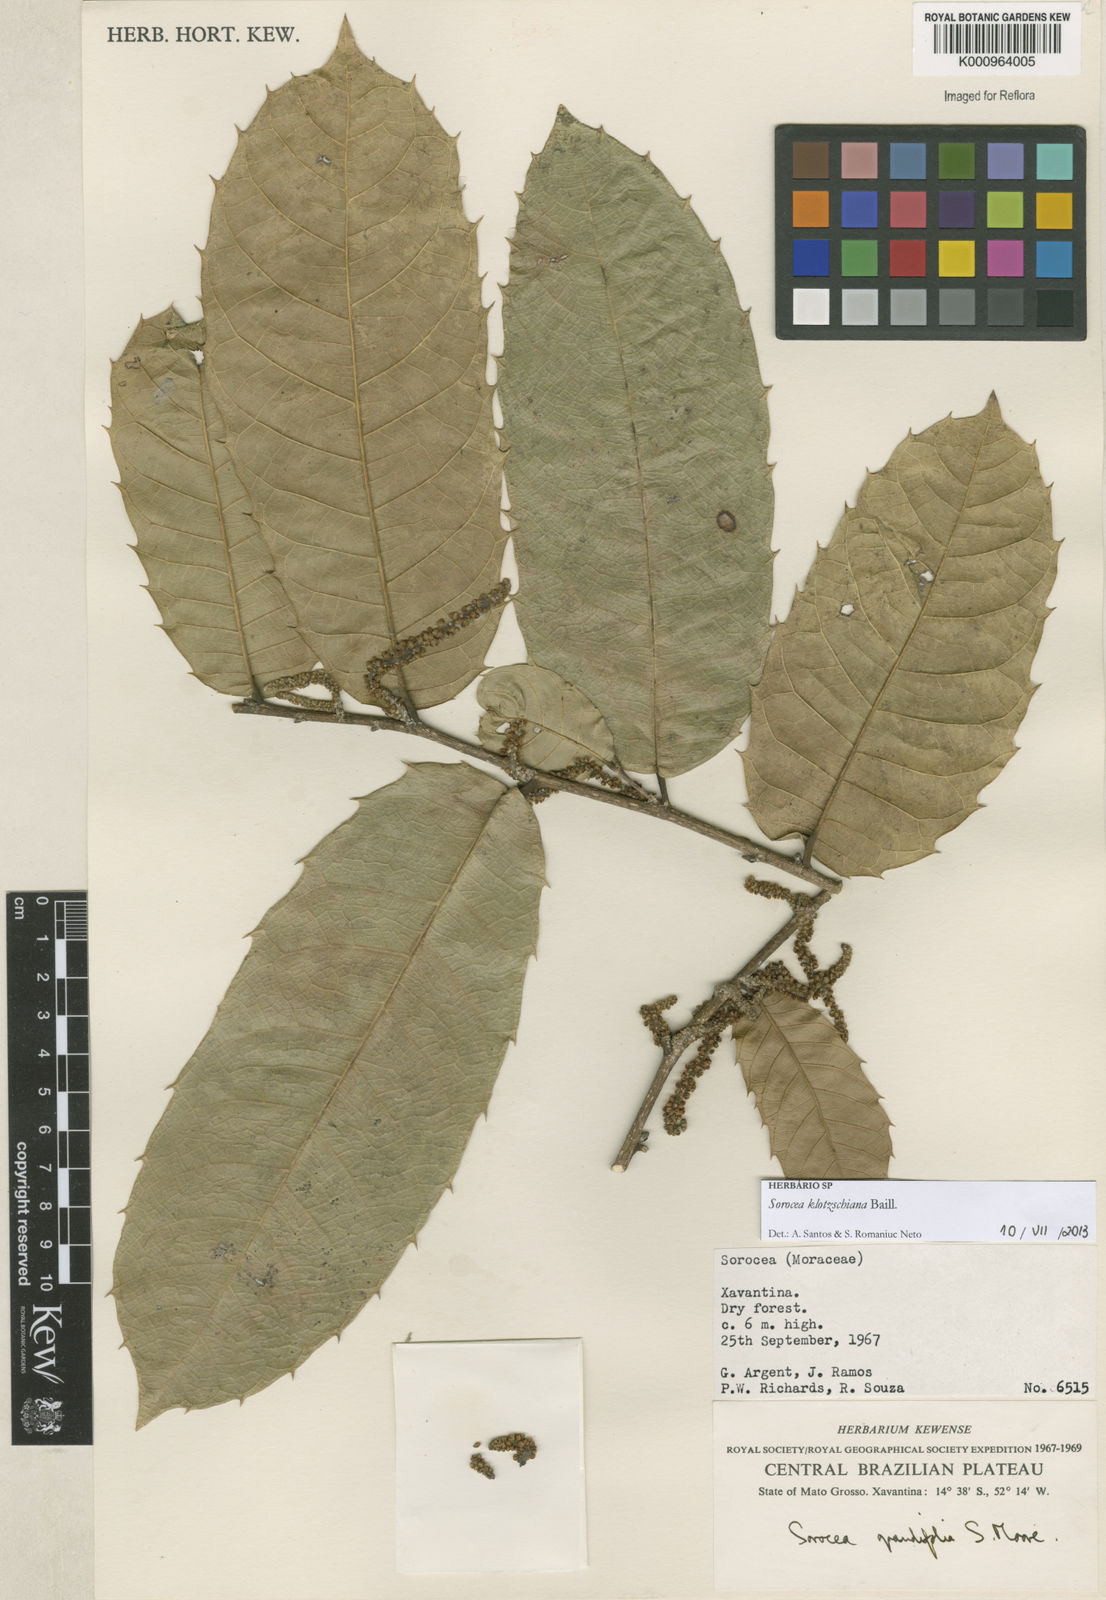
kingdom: Plantae
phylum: Tracheophyta
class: Magnoliopsida
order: Rosales
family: Moraceae
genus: Sorocea
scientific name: Sorocea guilleminiana
